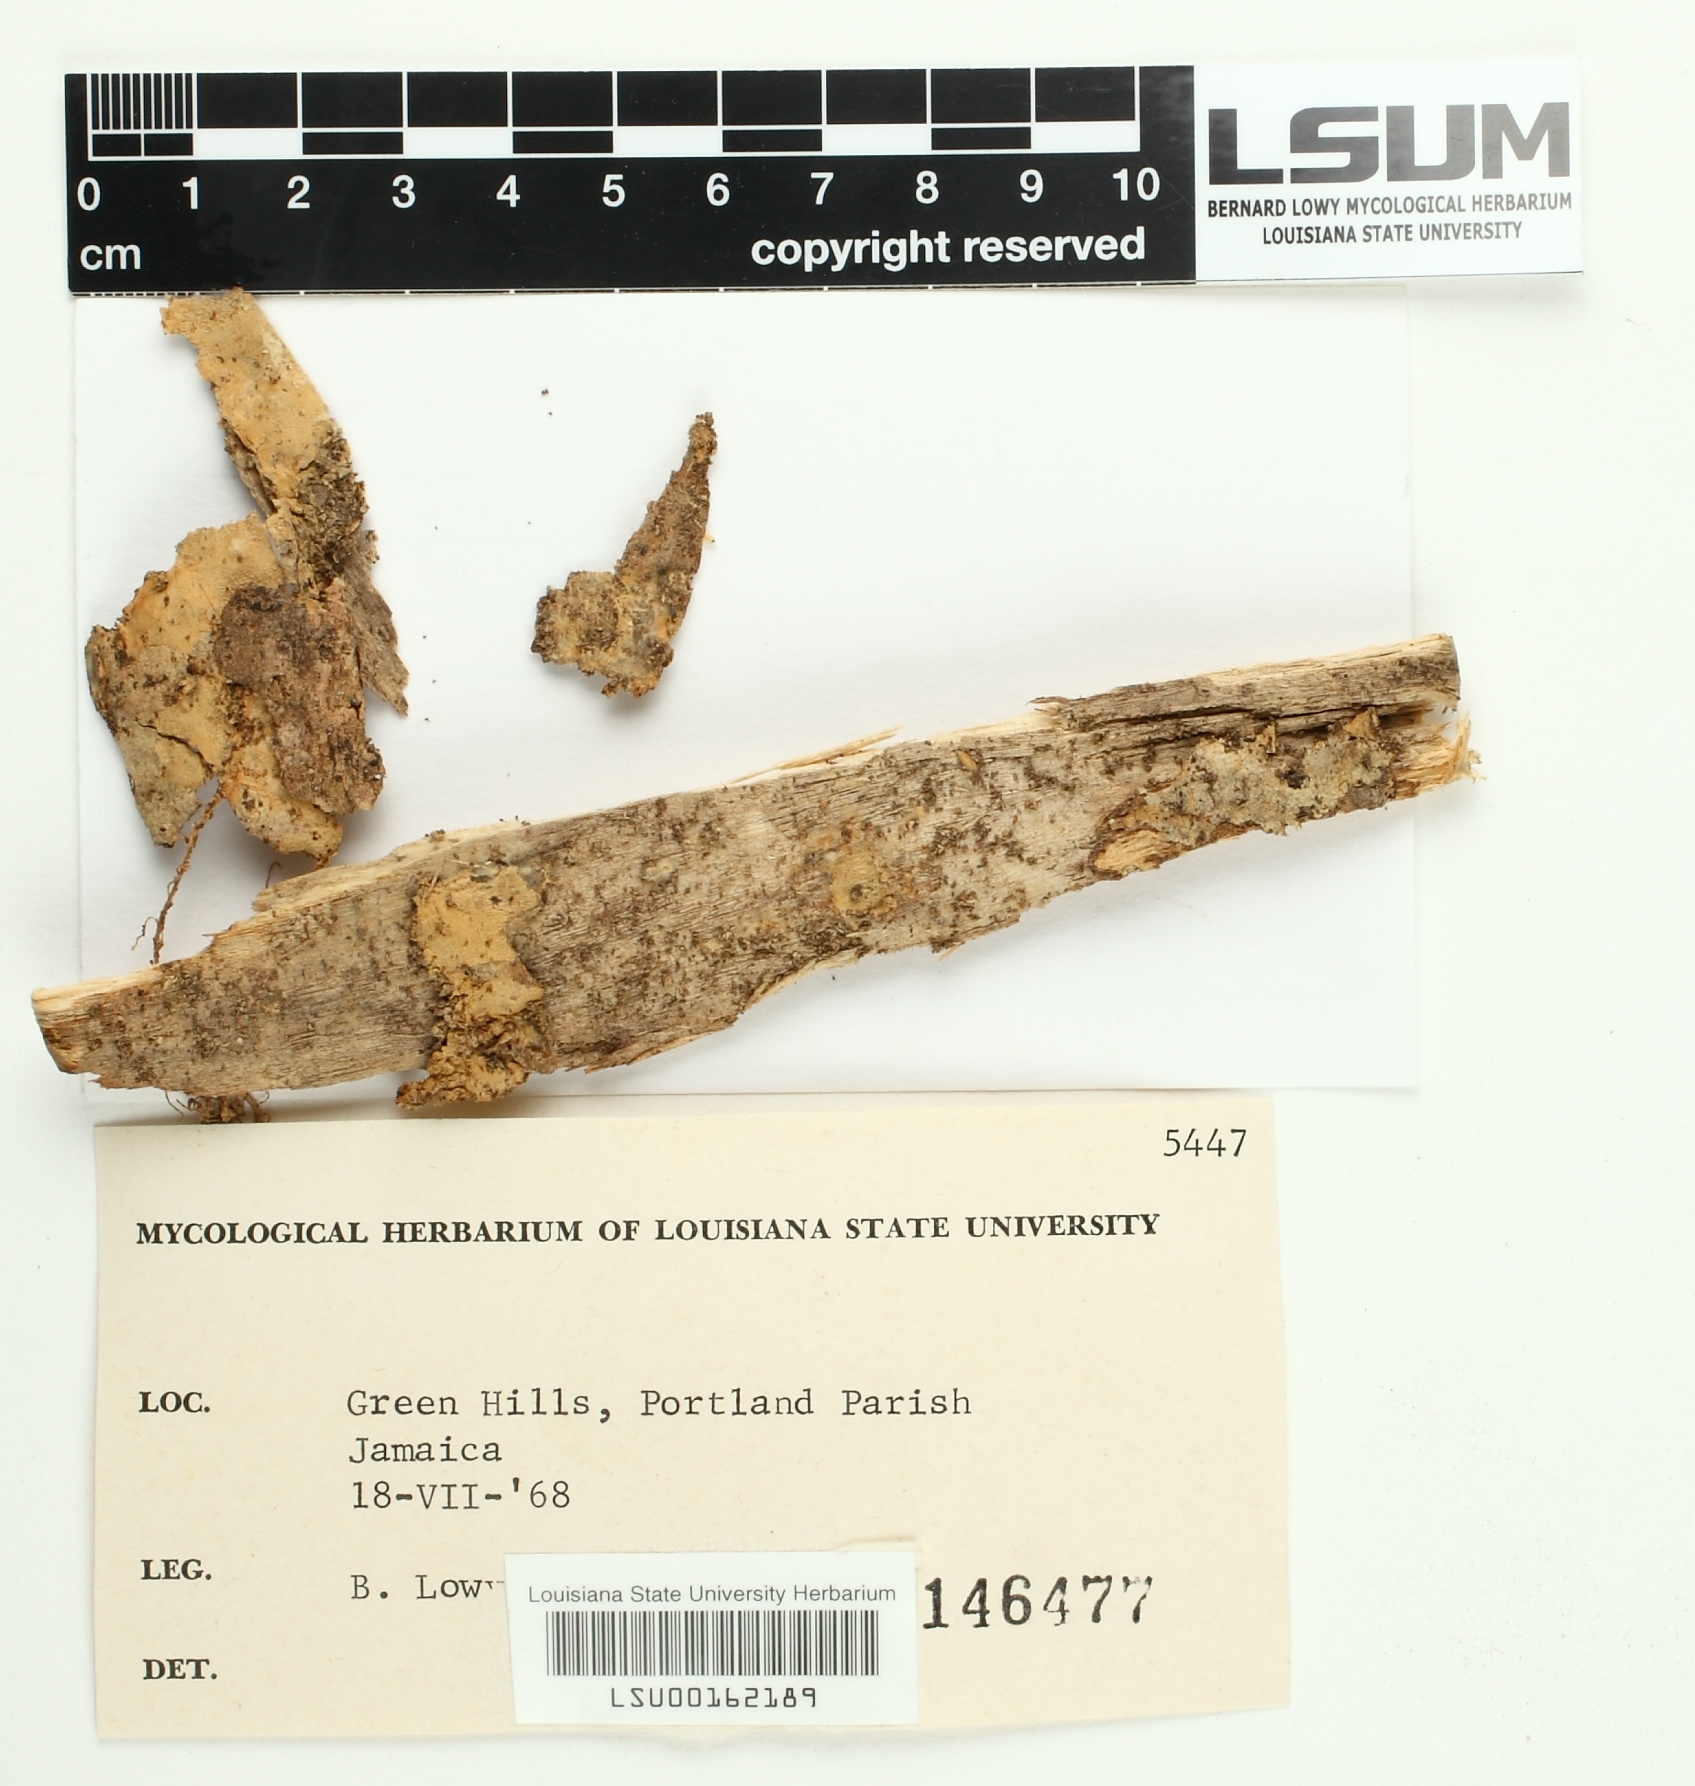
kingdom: Fungi
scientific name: Fungi
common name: Fungi
